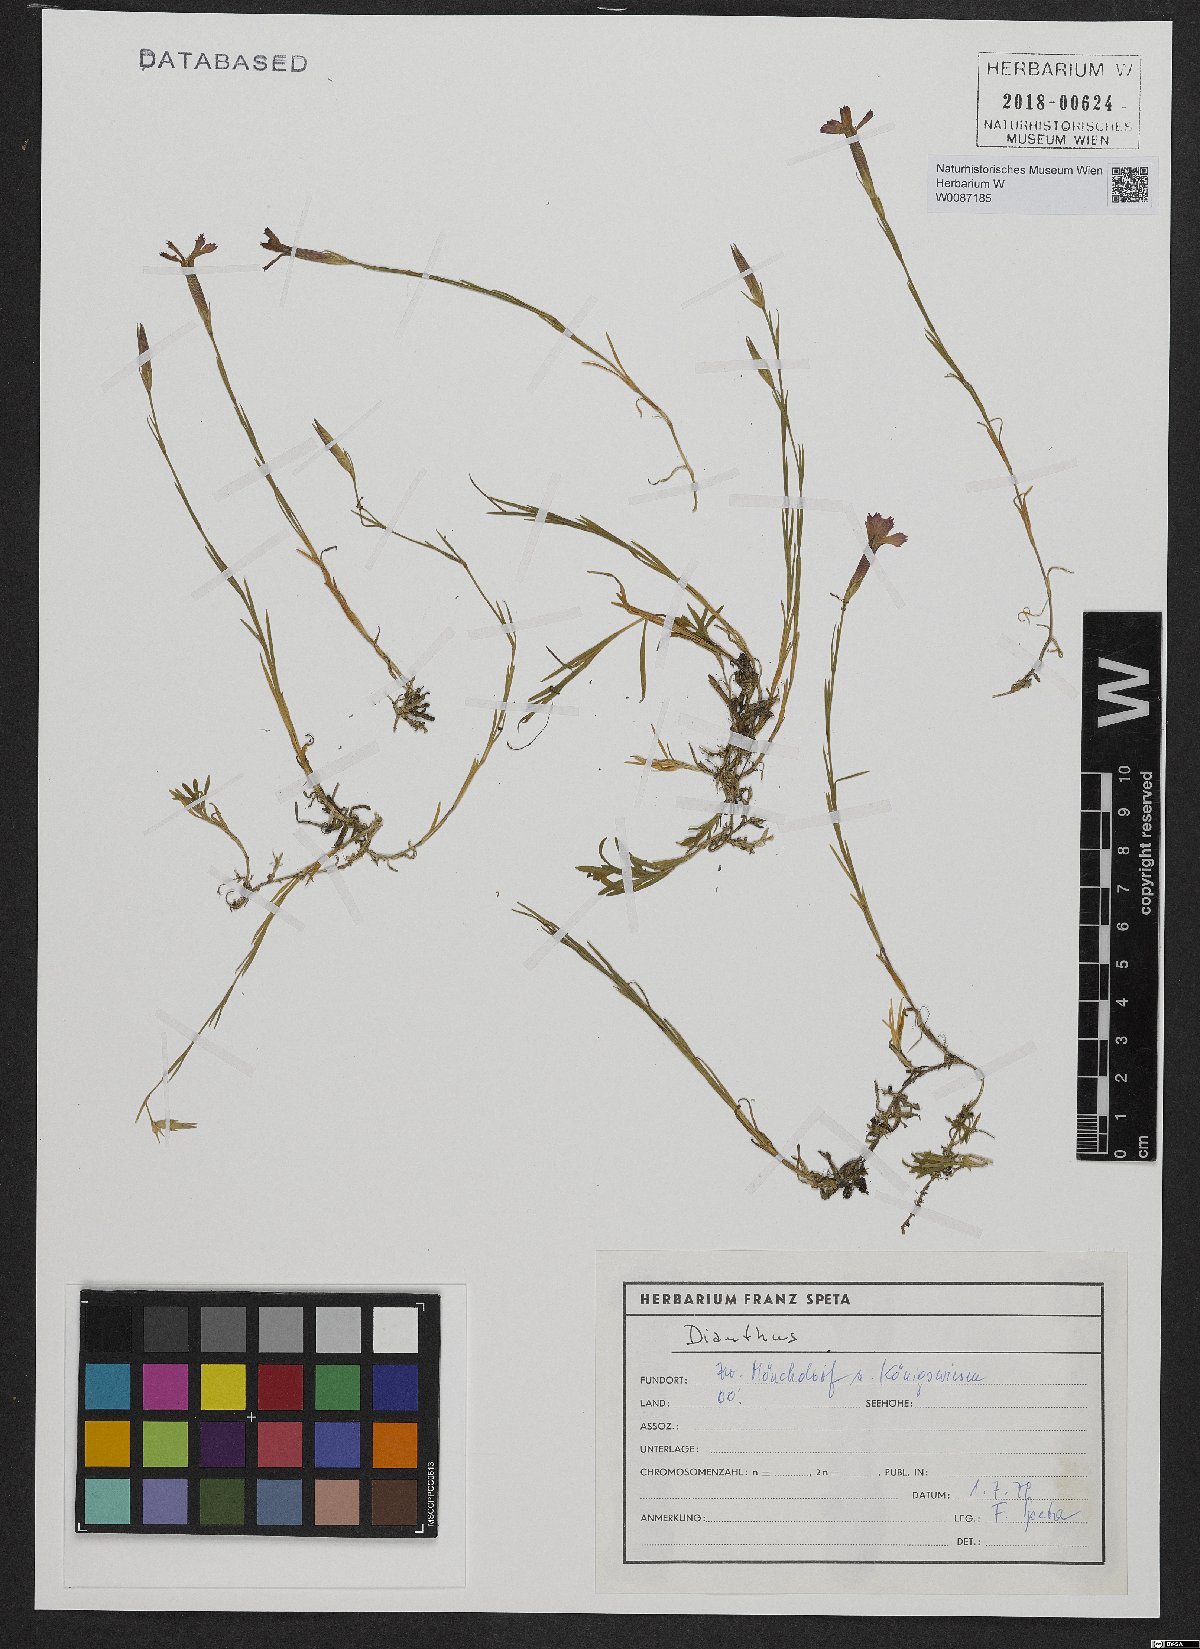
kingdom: Plantae
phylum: Tracheophyta
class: Magnoliopsida
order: Caryophyllales
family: Caryophyllaceae
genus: Dianthus
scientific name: Dianthus deltoides
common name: Maiden pink
